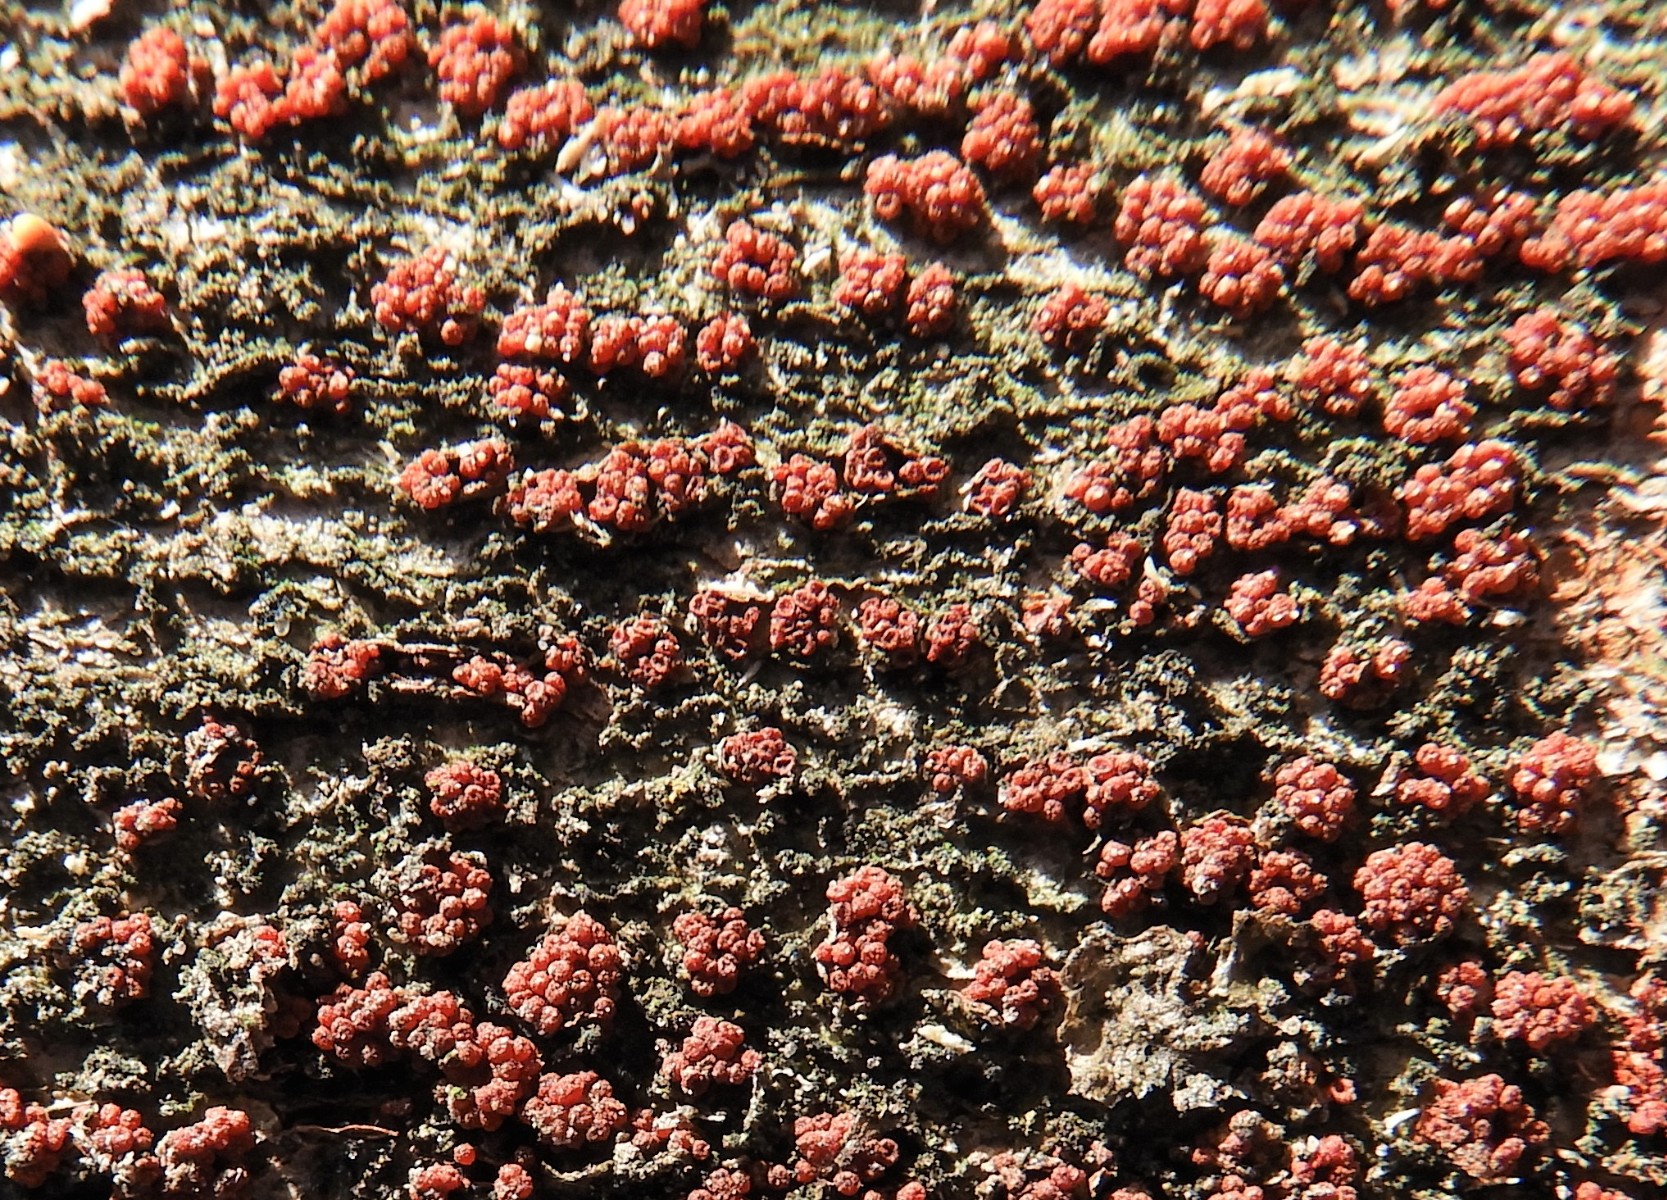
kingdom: Fungi
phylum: Ascomycota
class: Sordariomycetes
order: Hypocreales
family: Nectriaceae
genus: Neonectria
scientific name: Neonectria coccinea
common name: bøgebark-cinnobersvamp
